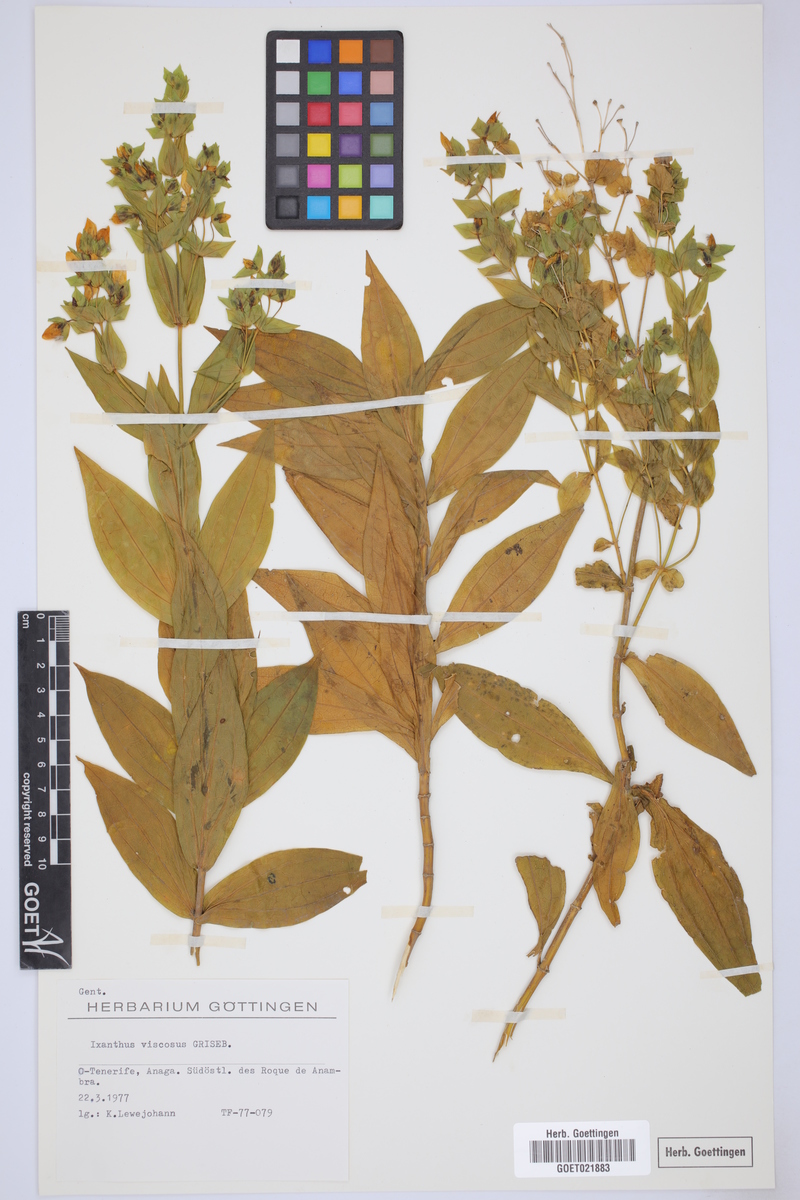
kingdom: Plantae
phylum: Tracheophyta
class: Magnoliopsida
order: Gentianales
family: Gentianaceae
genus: Ixanthus
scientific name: Ixanthus viscosus
